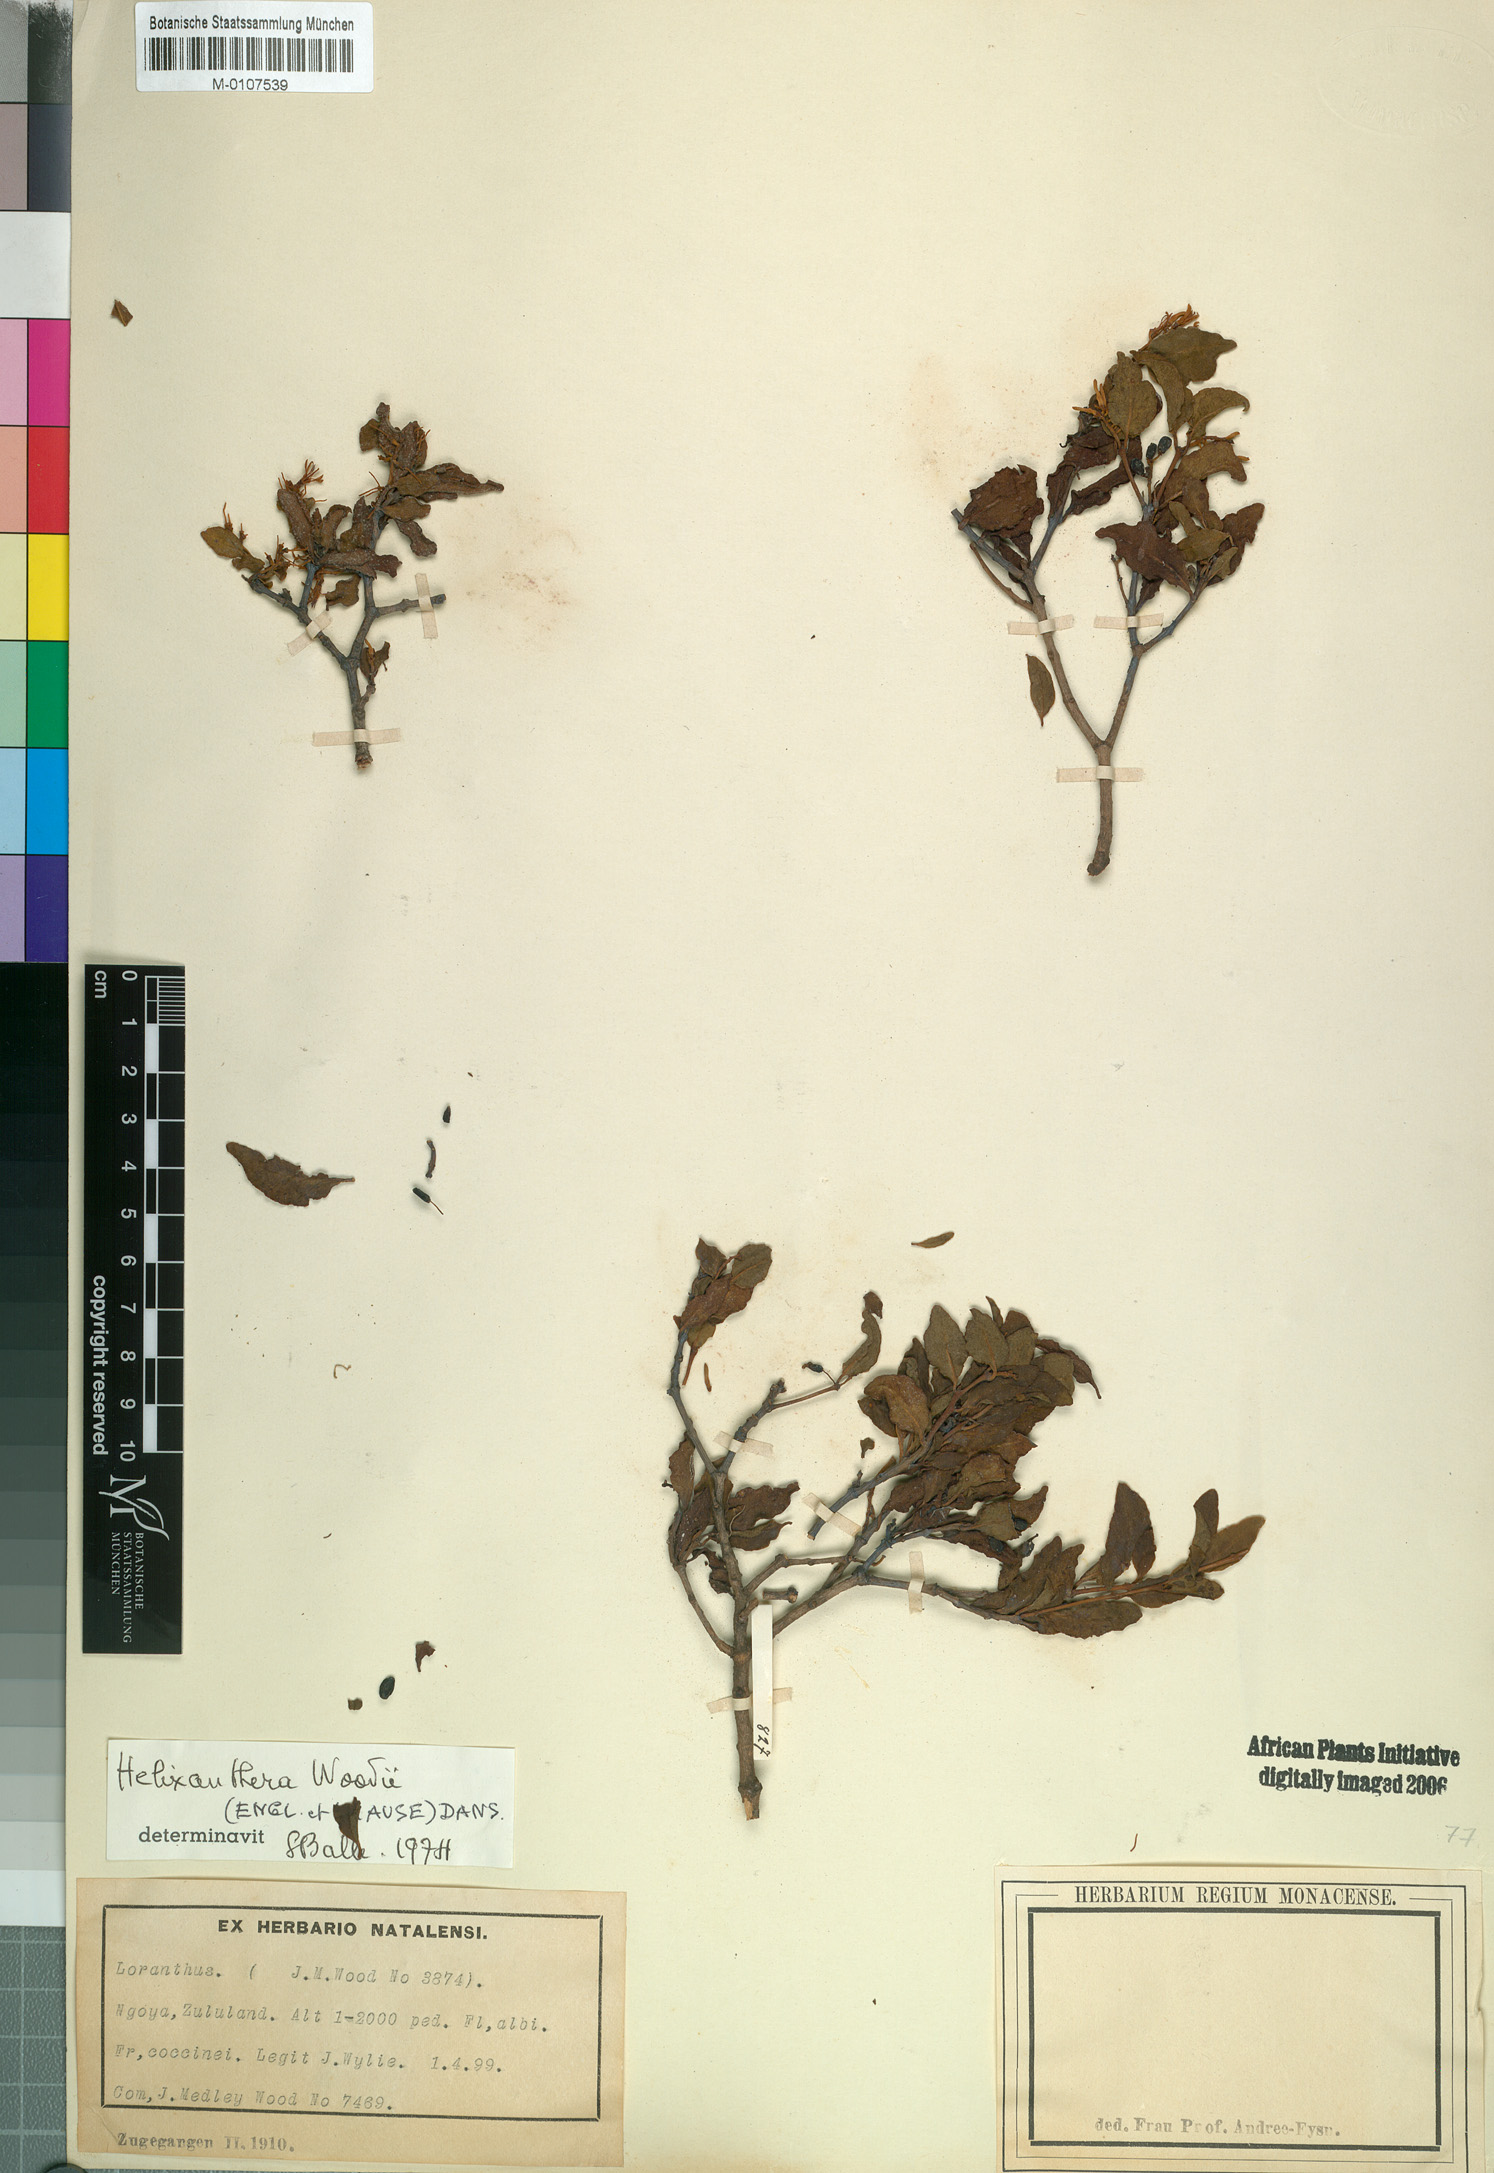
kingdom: Plantae
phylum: Tracheophyta
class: Magnoliopsida
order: Santalales
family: Loranthaceae
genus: Helixanthera
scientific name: Helixanthera woodii
